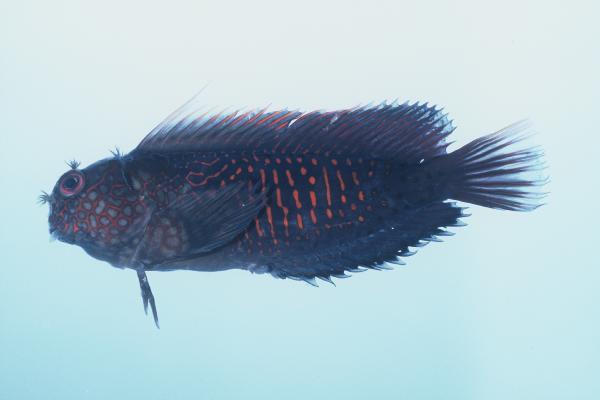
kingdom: Animalia
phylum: Chordata
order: Perciformes
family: Blenniidae
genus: Cirripectes
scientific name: Cirripectes stigmaticus
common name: Red-streaked blenny
